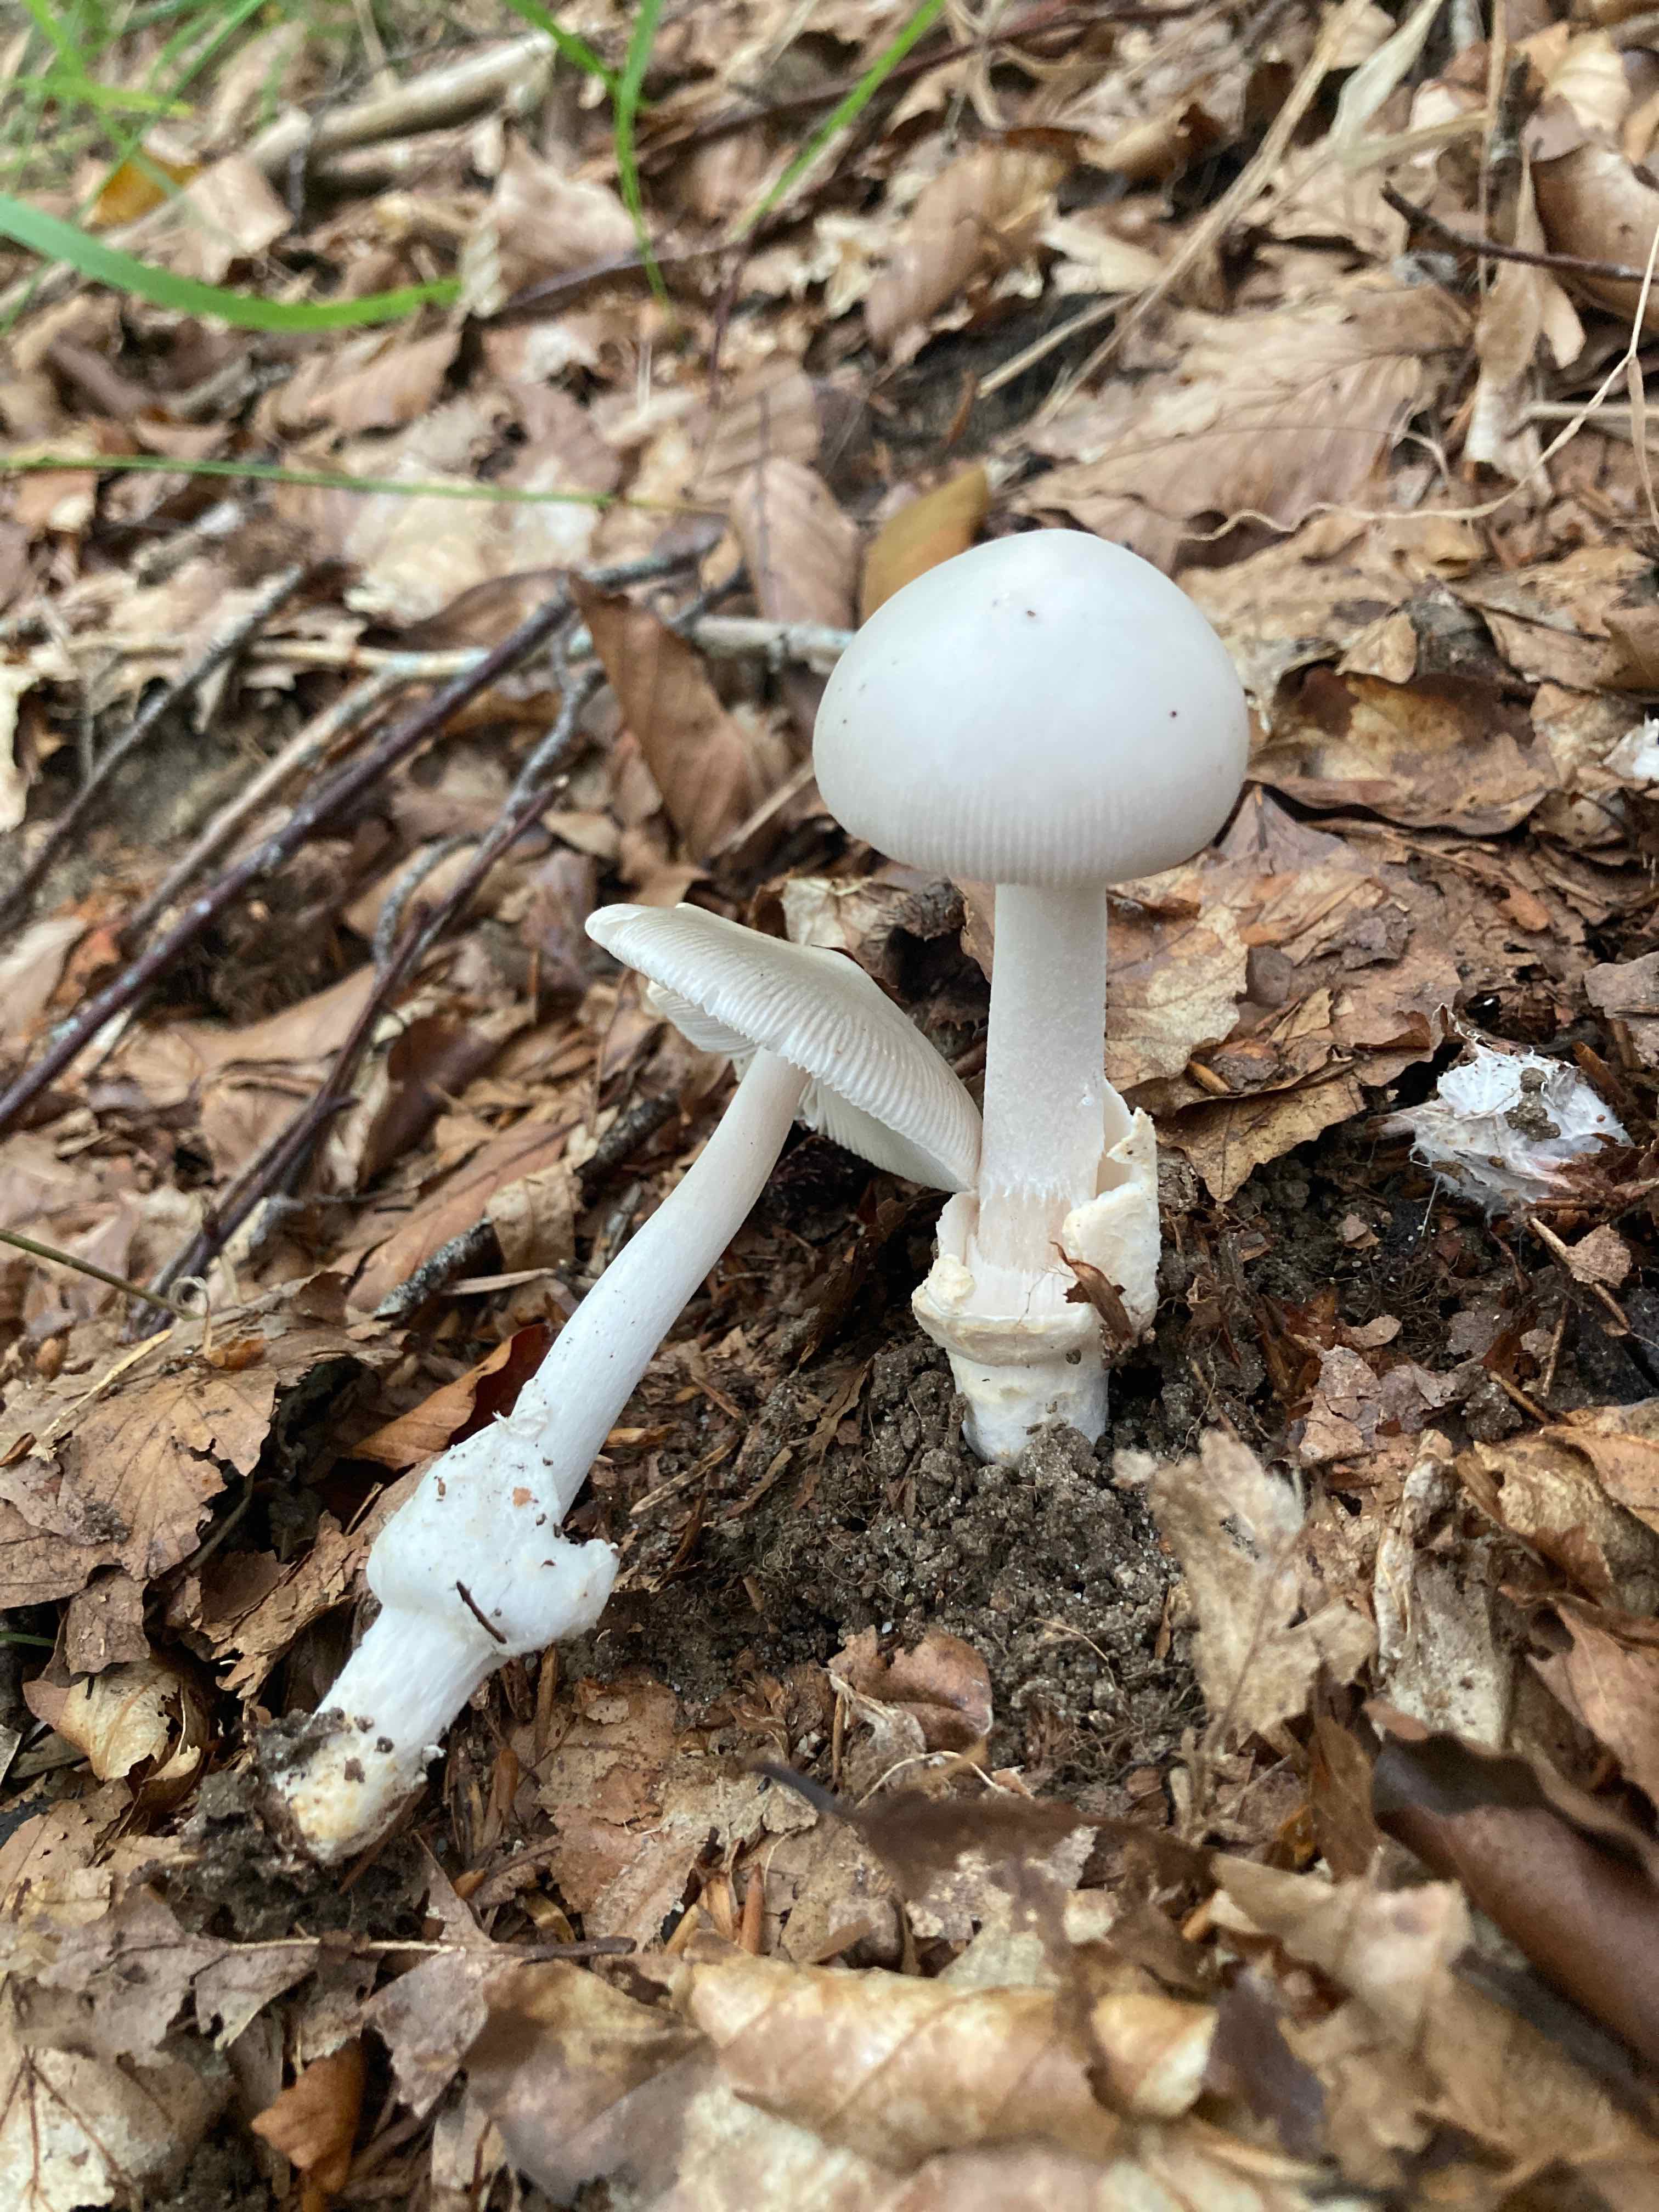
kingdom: Fungi
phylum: Basidiomycota
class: Agaricomycetes
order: Agaricales
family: Amanitaceae
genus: Amanita
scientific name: Amanita vaginata
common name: grå kam-fluesvamp
